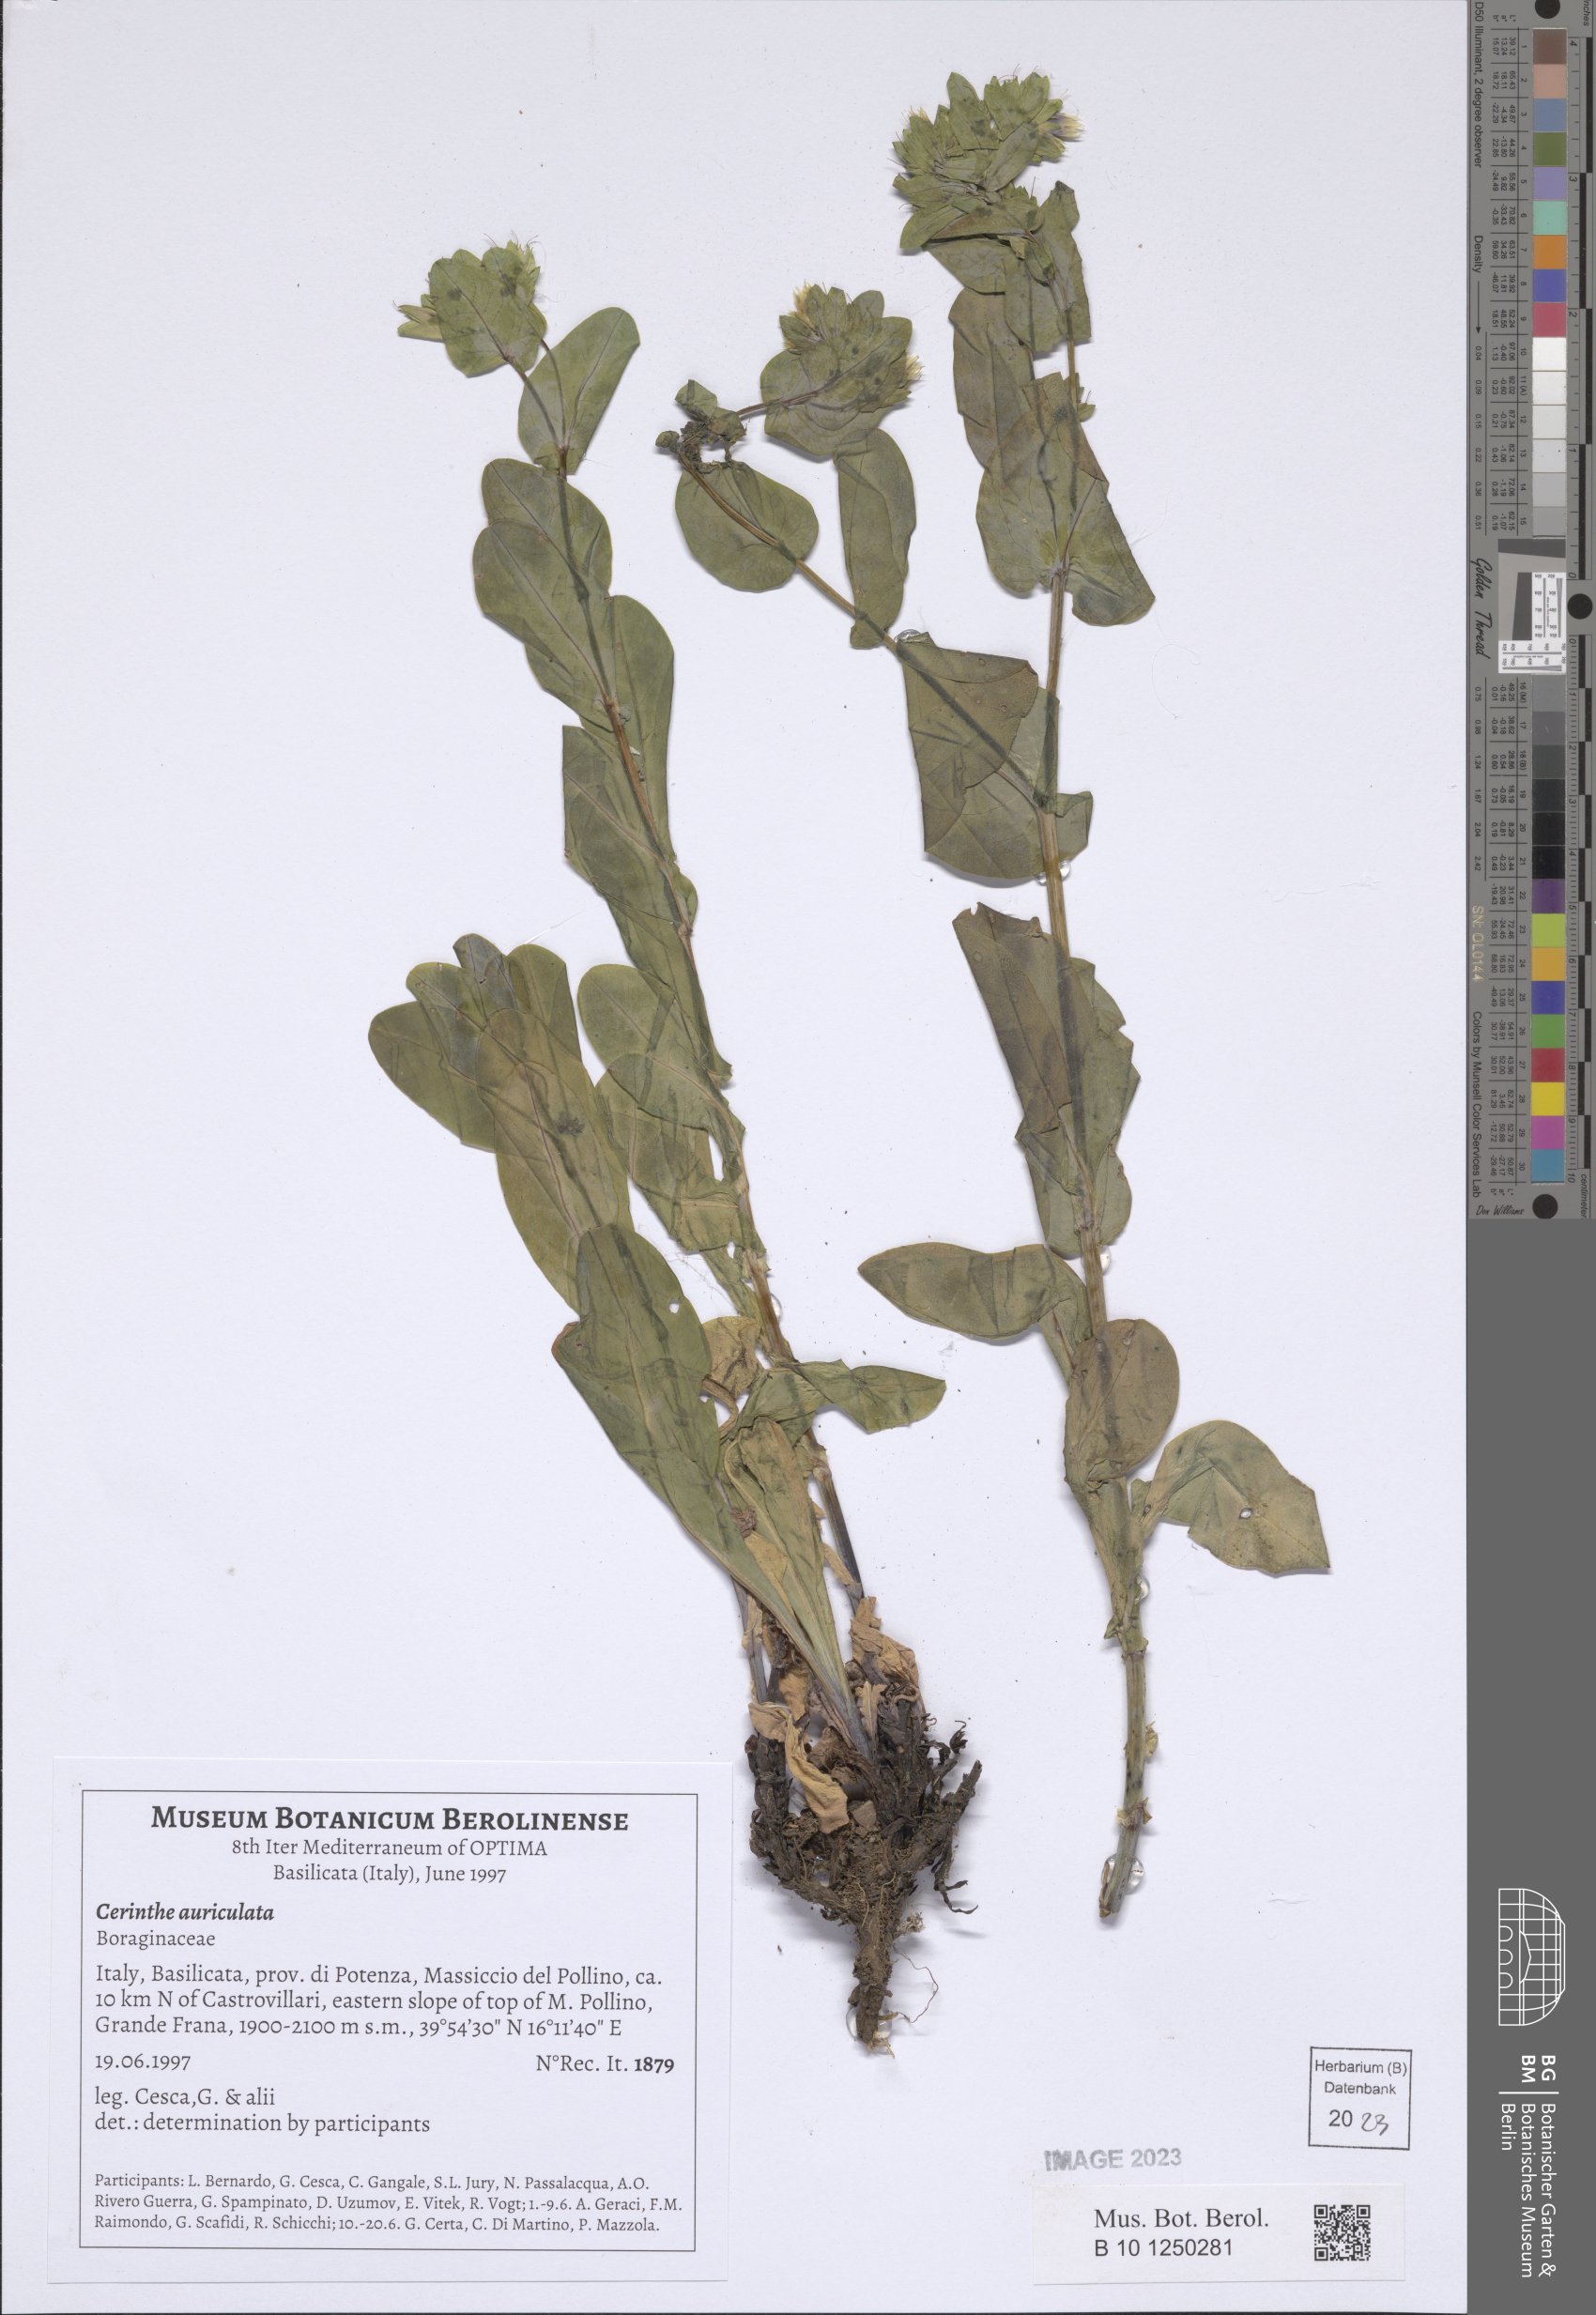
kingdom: Plantae
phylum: Tracheophyta
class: Magnoliopsida
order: Boraginales
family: Boraginaceae
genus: Cerinthe
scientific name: Cerinthe minor
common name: Lesser honeywort
